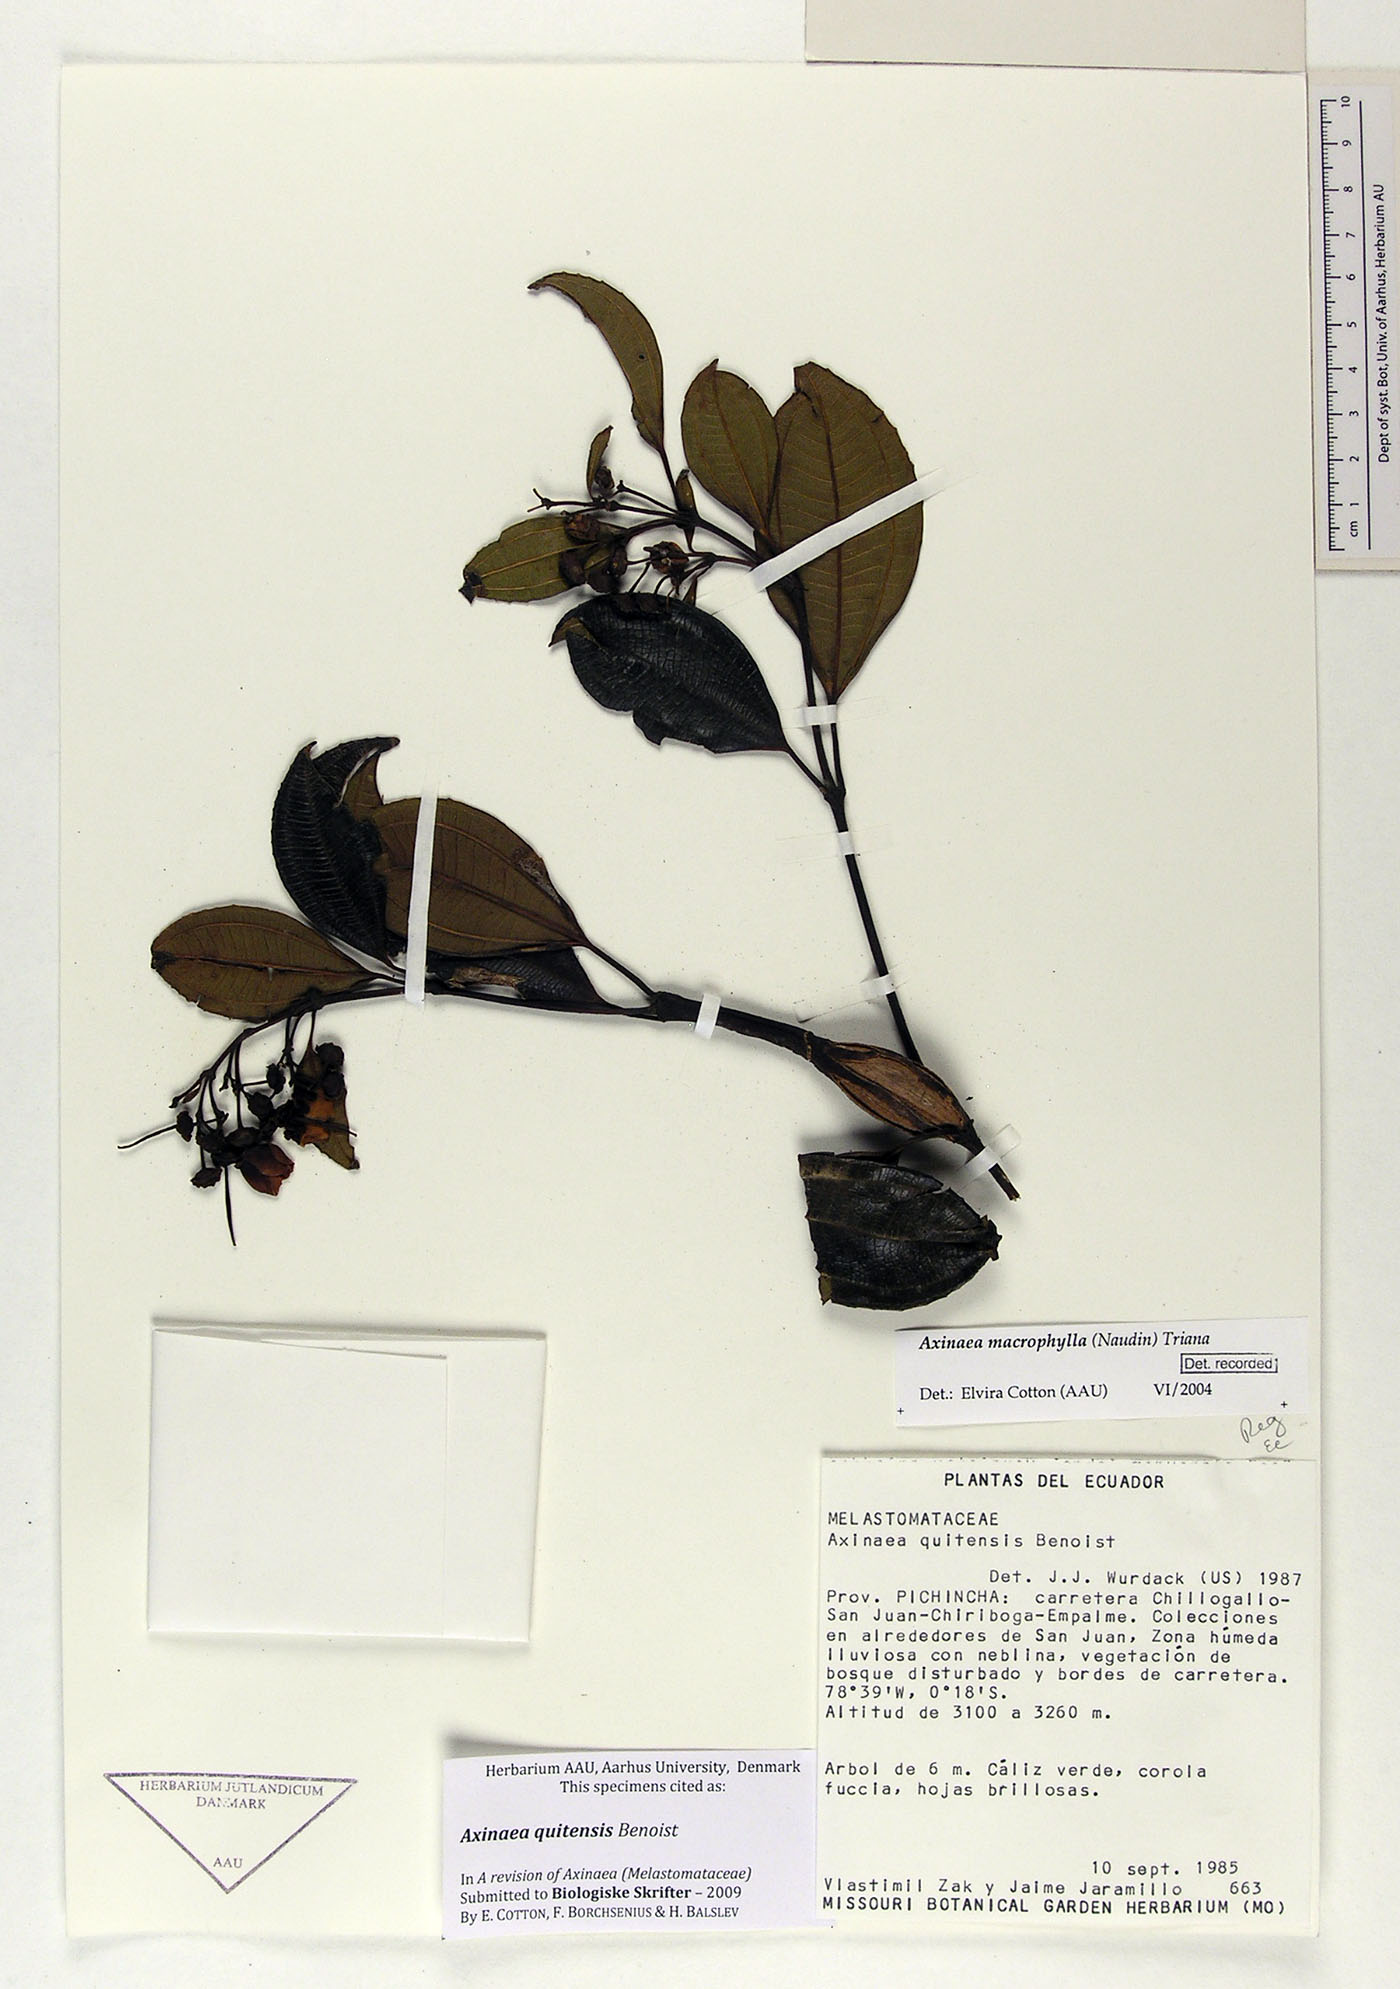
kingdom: Plantae
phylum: Tracheophyta
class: Magnoliopsida
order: Myrtales
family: Melastomataceae
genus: Axinaea
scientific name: Axinaea quitensis
